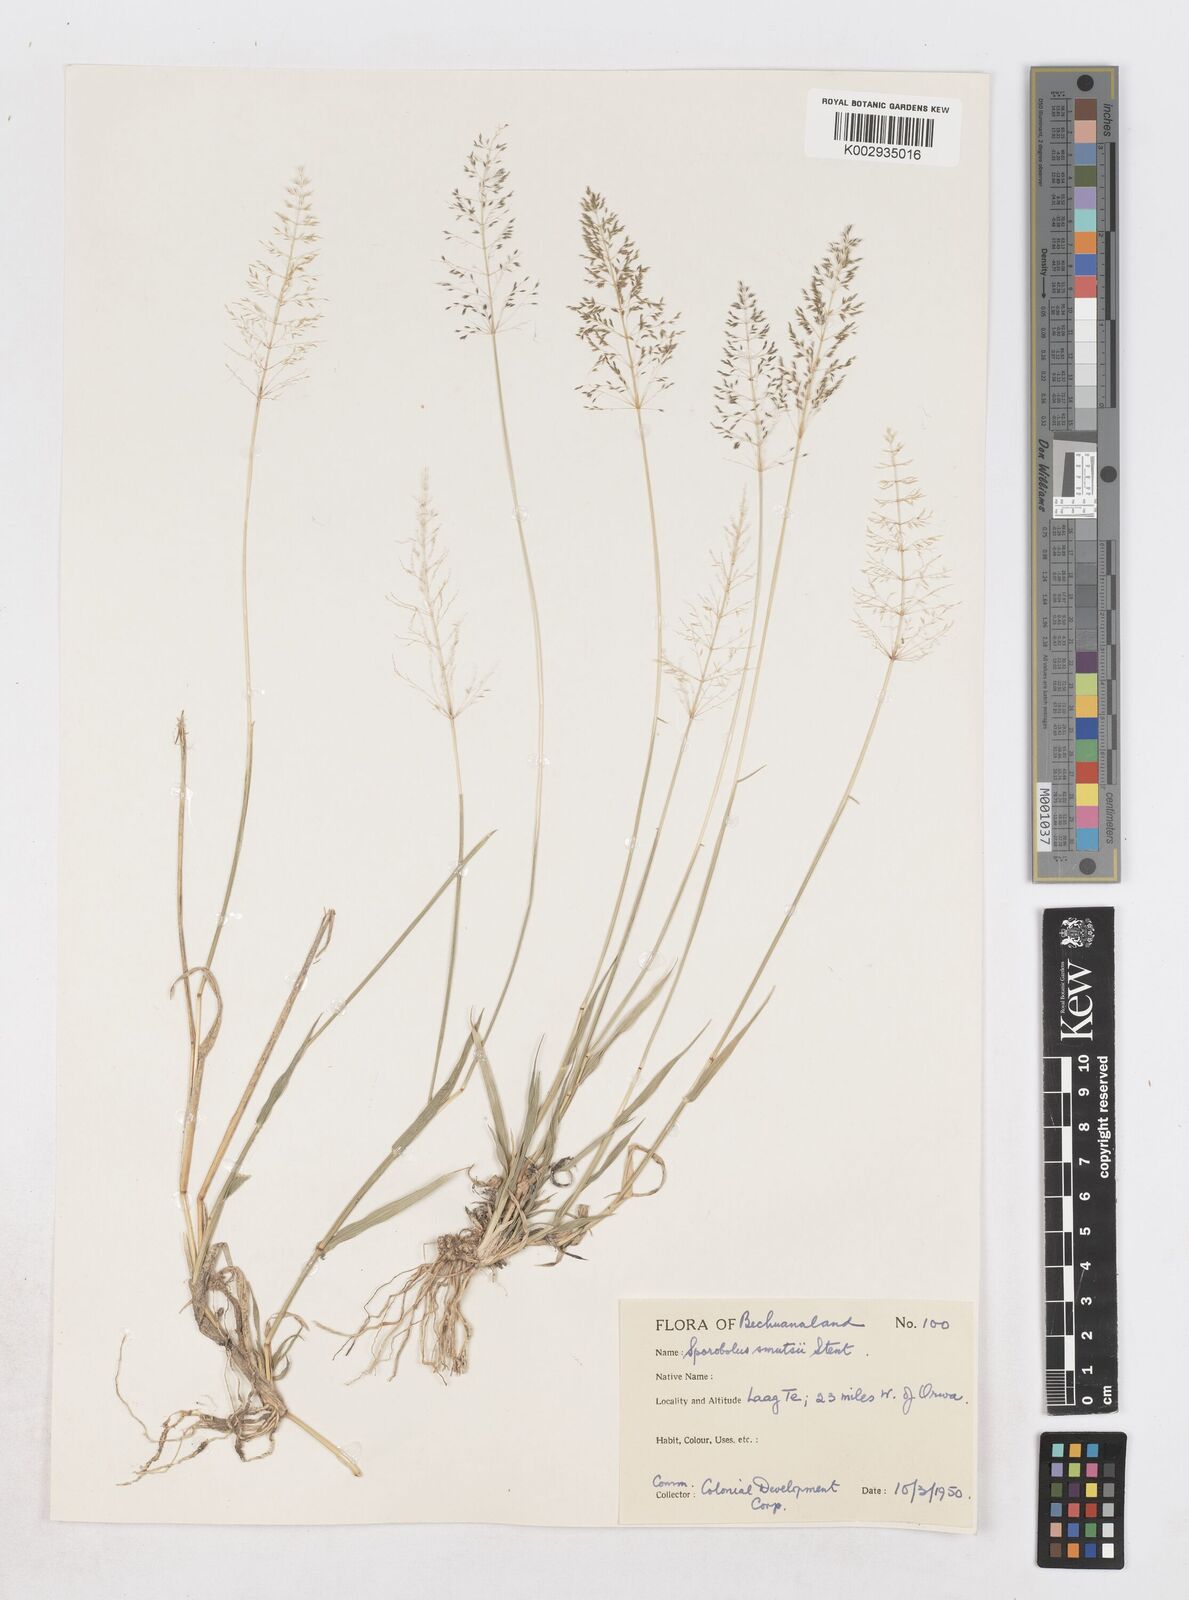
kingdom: Plantae
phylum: Tracheophyta
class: Liliopsida
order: Poales
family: Poaceae
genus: Sporobolus
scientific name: Sporobolus ioclados
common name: Pan dropseed
